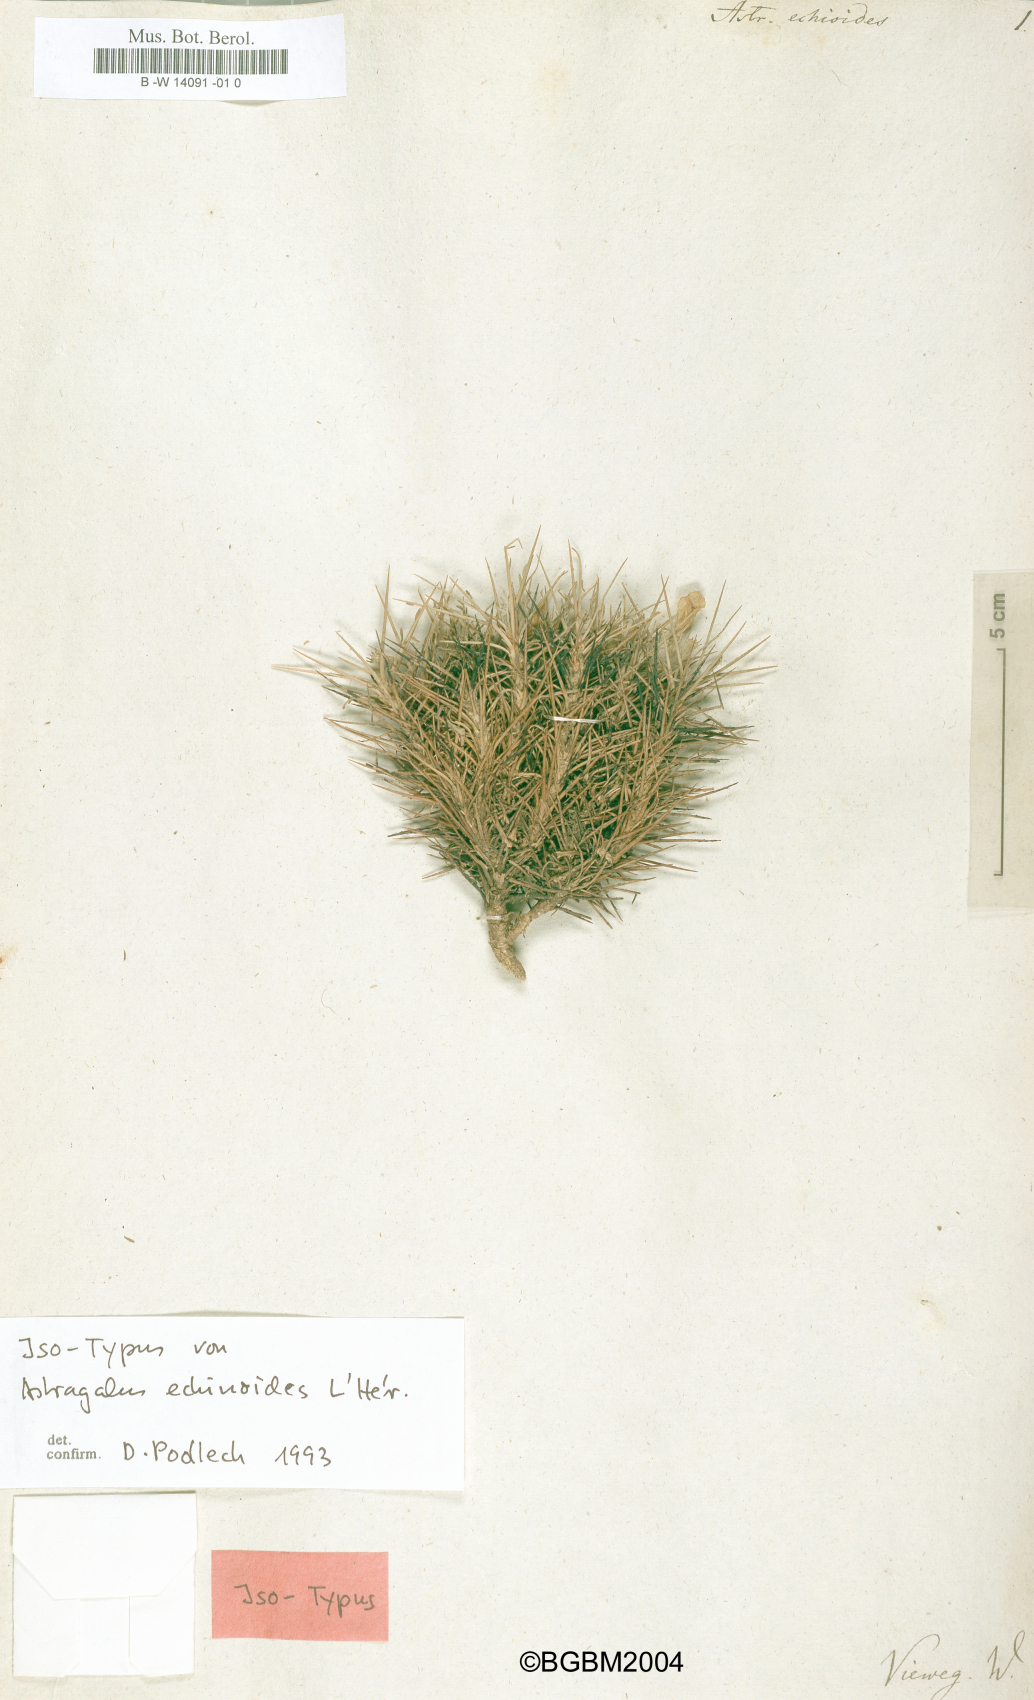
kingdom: Plantae
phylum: Tracheophyta
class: Magnoliopsida
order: Fabales
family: Fabaceae
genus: Astragalus
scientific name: Astragalus angustifolius
